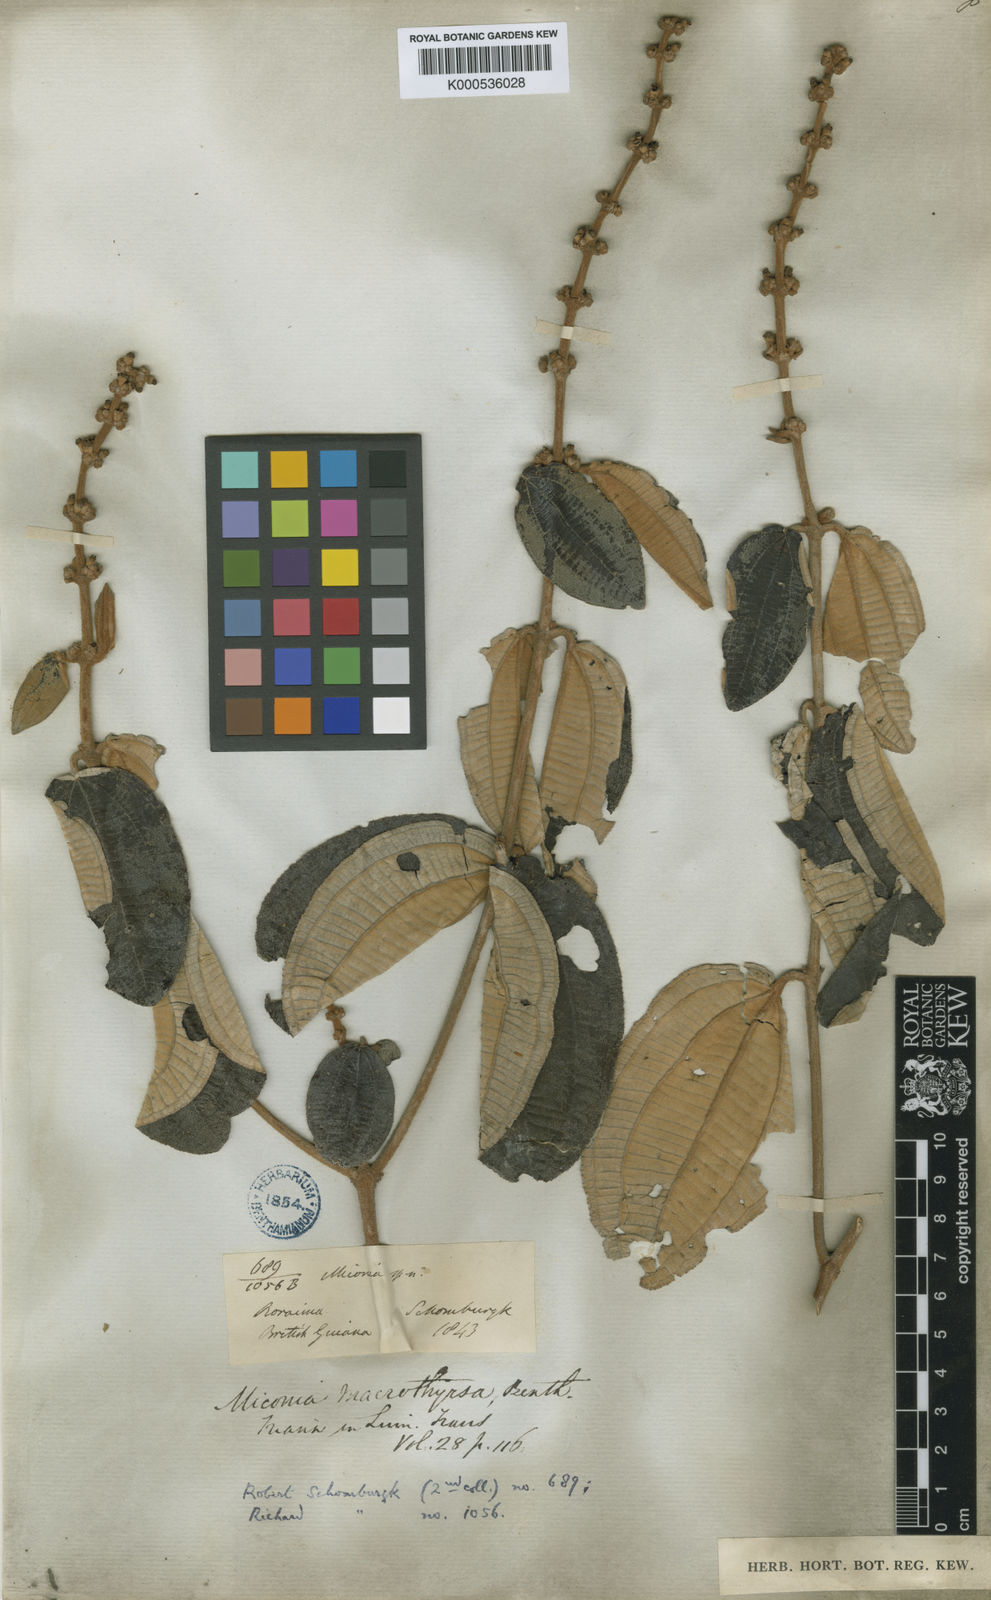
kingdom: Plantae
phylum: Tracheophyta
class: Magnoliopsida
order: Myrtales
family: Melastomataceae
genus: Miconia
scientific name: Miconia macrothyrsa
